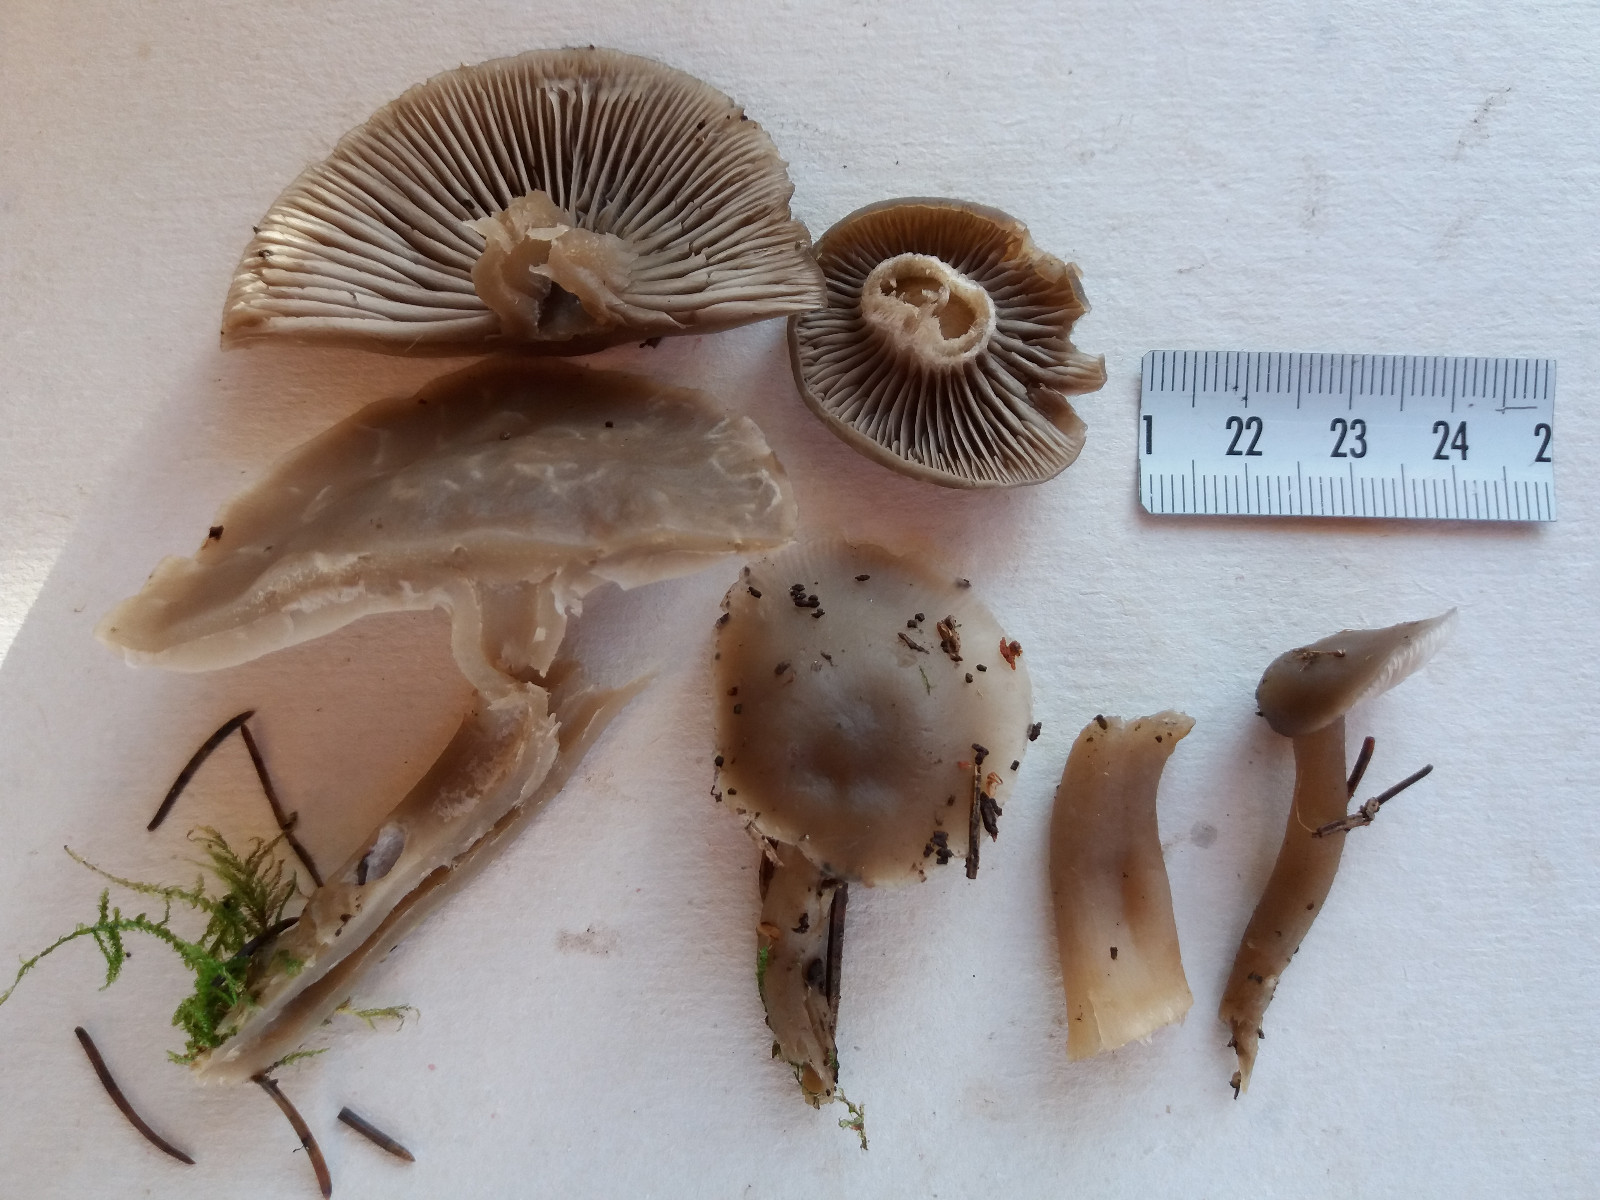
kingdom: Fungi
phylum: Basidiomycota
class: Agaricomycetes
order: Agaricales
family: Tricholomataceae
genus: Clitocybe
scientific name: Clitocybe
